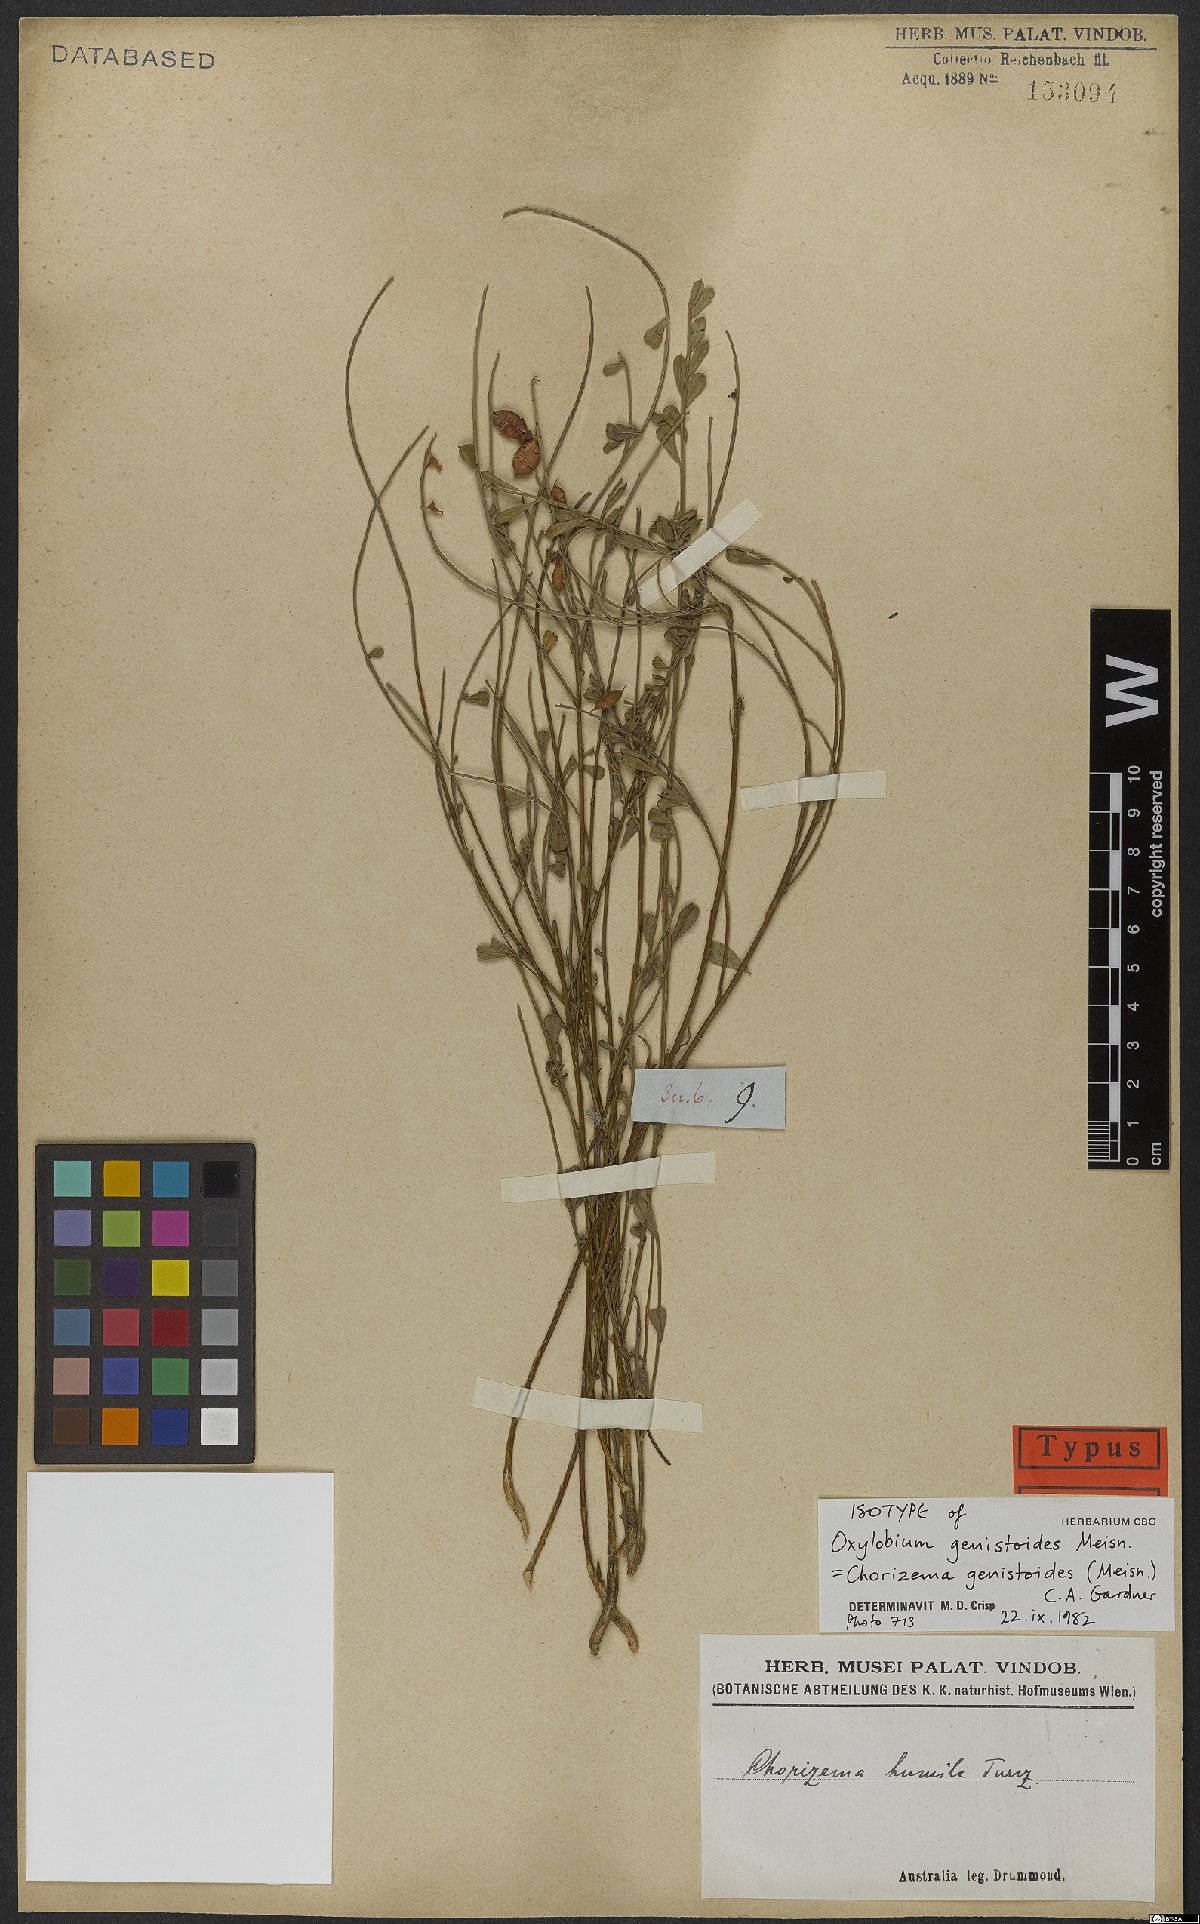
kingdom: Plantae
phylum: Tracheophyta
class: Magnoliopsida
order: Fabales
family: Fabaceae
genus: Chorizema
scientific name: Chorizema genistoides
